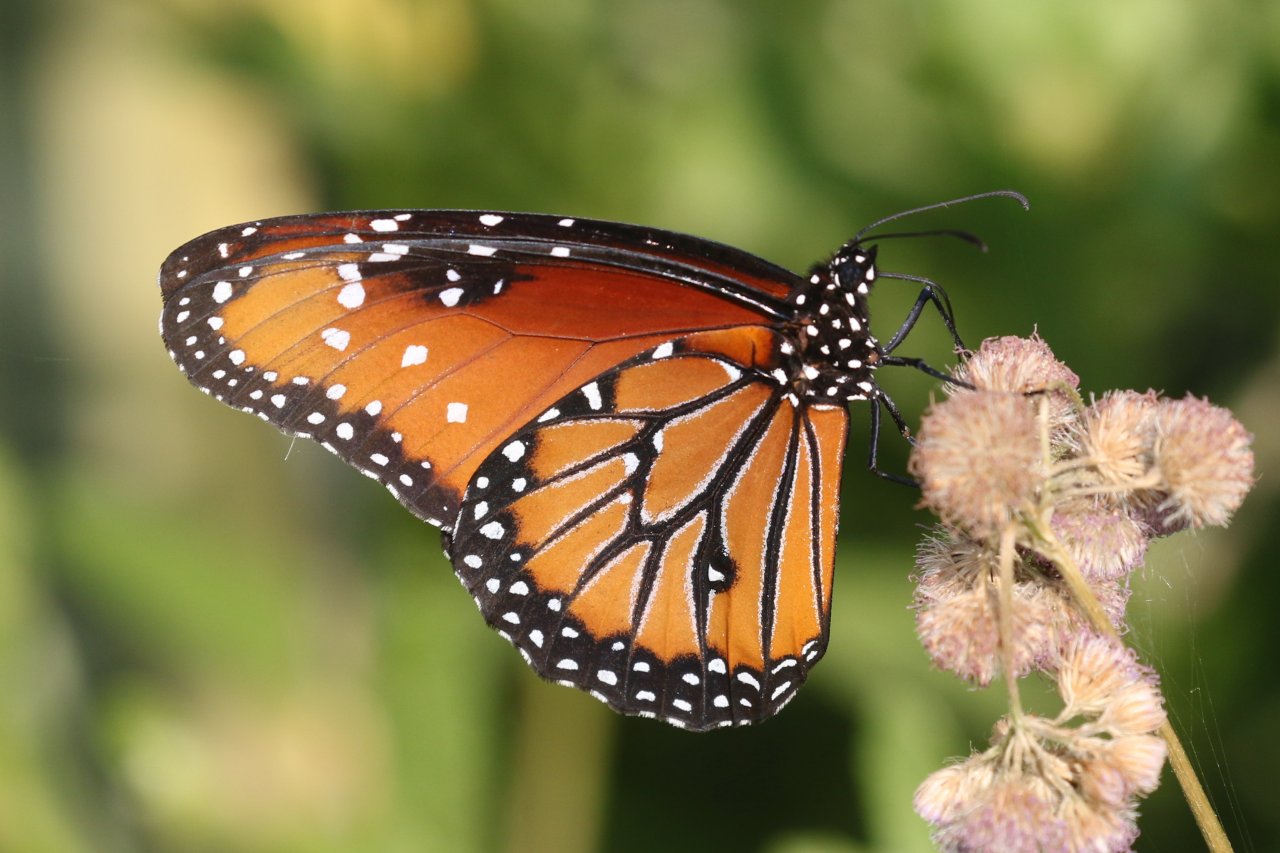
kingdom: Animalia
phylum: Arthropoda
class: Insecta
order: Lepidoptera
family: Nymphalidae
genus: Danaus
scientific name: Danaus gilippus
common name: Queen
